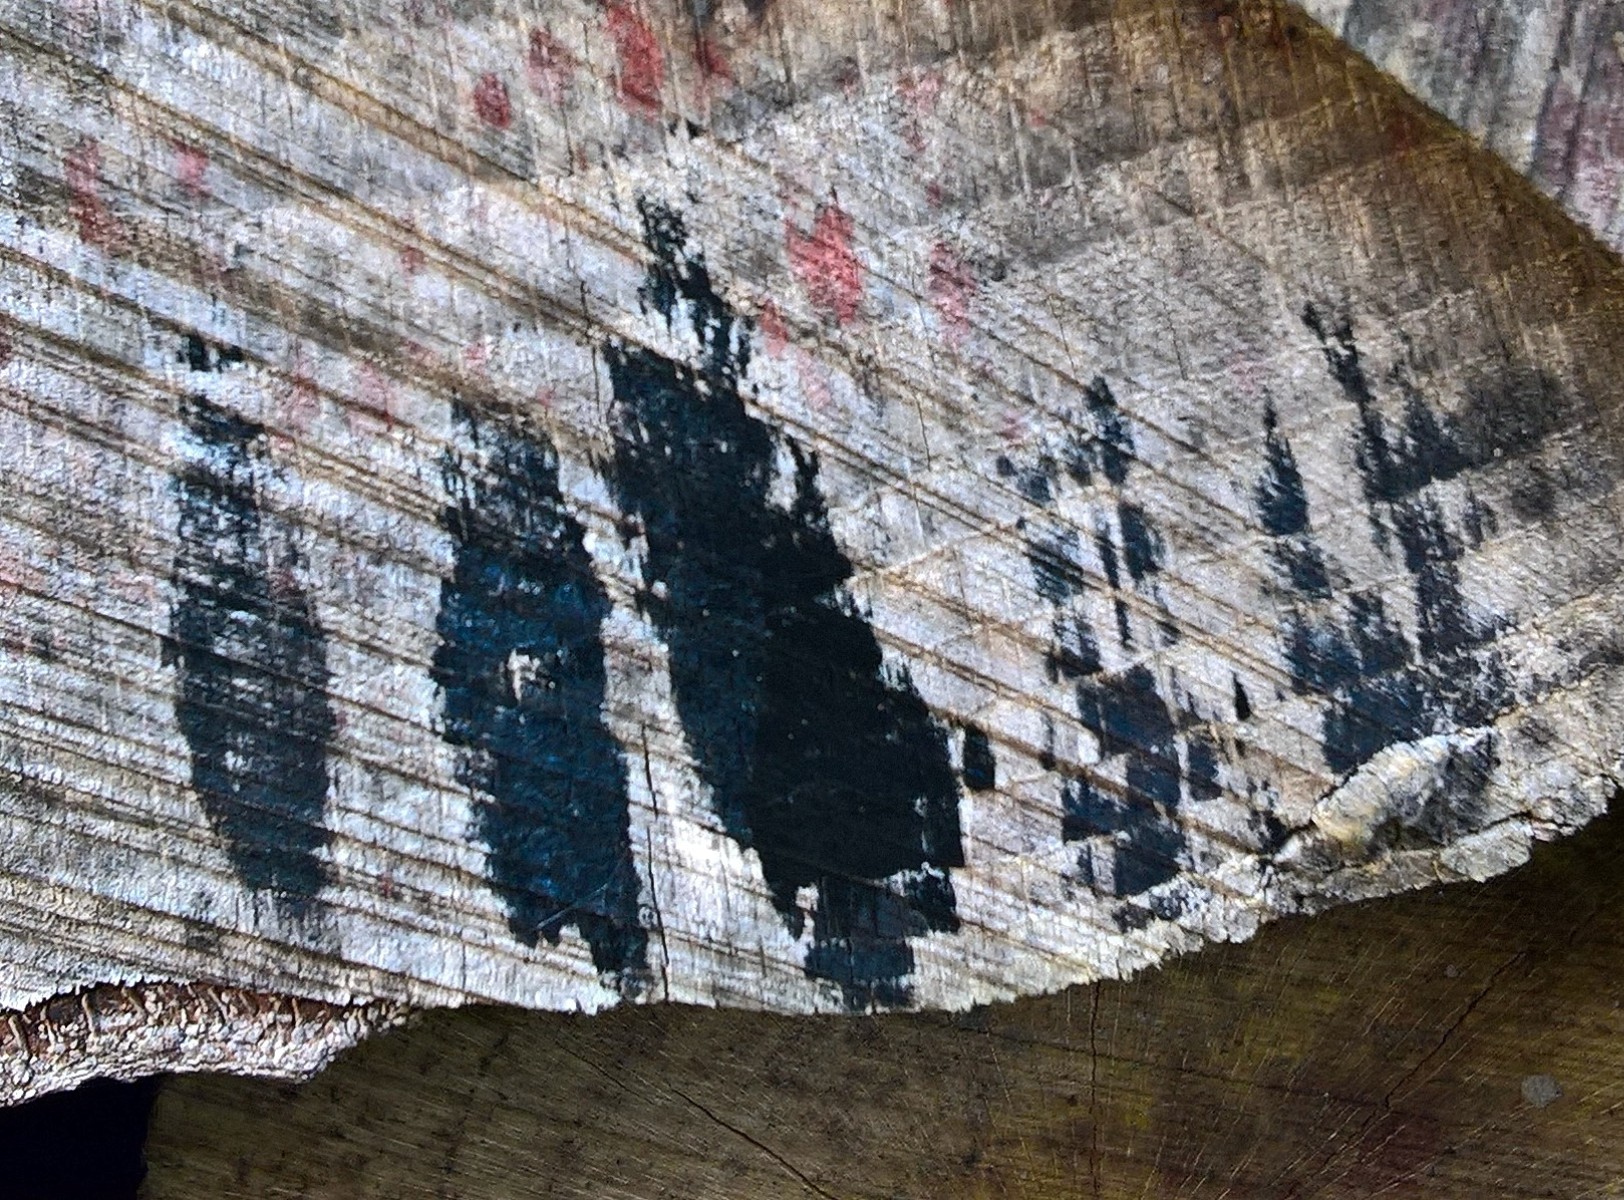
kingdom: Fungi
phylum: Ascomycota
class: Leotiomycetes
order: Helotiales
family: Helotiaceae
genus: Bispora
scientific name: Bispora pallescens
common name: måtte-snitskive
